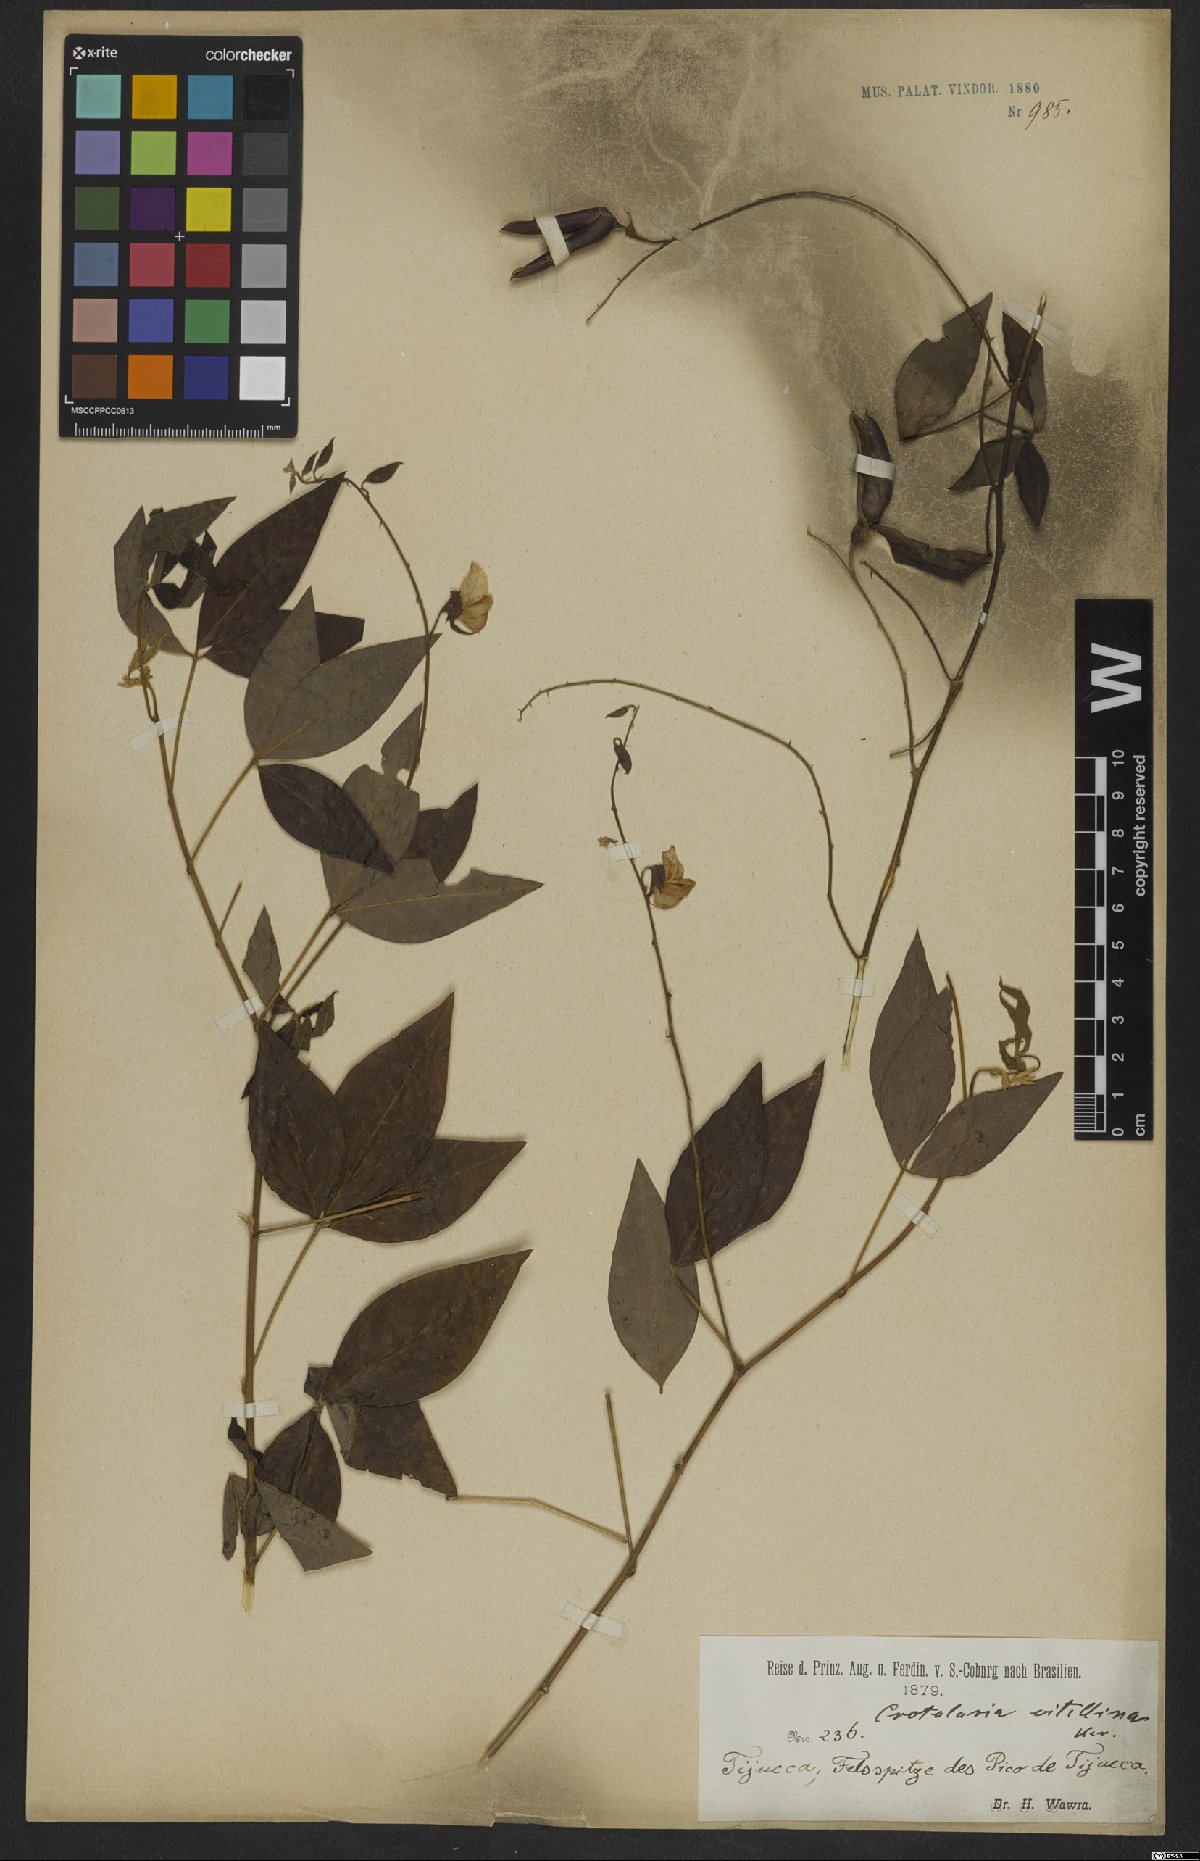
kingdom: Plantae
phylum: Tracheophyta
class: Magnoliopsida
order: Fabales
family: Fabaceae
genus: Crotalaria
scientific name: Crotalaria vitellina
